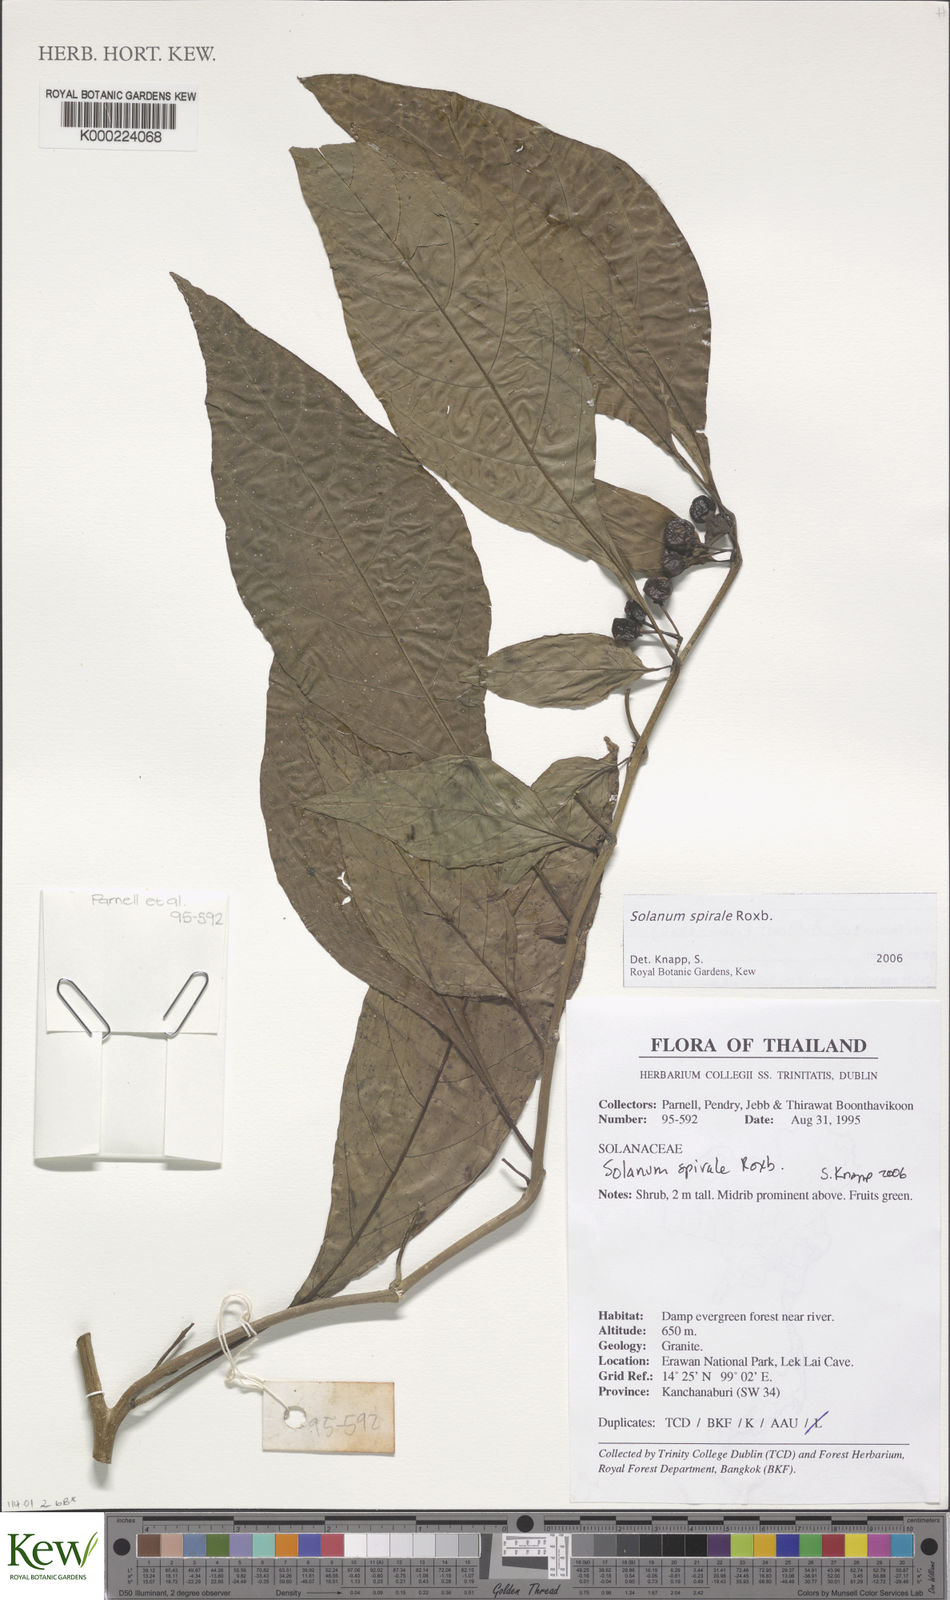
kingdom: Plantae
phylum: Tracheophyta
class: Magnoliopsida
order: Solanales
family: Solanaceae
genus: Solanum
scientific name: Solanum spirale
